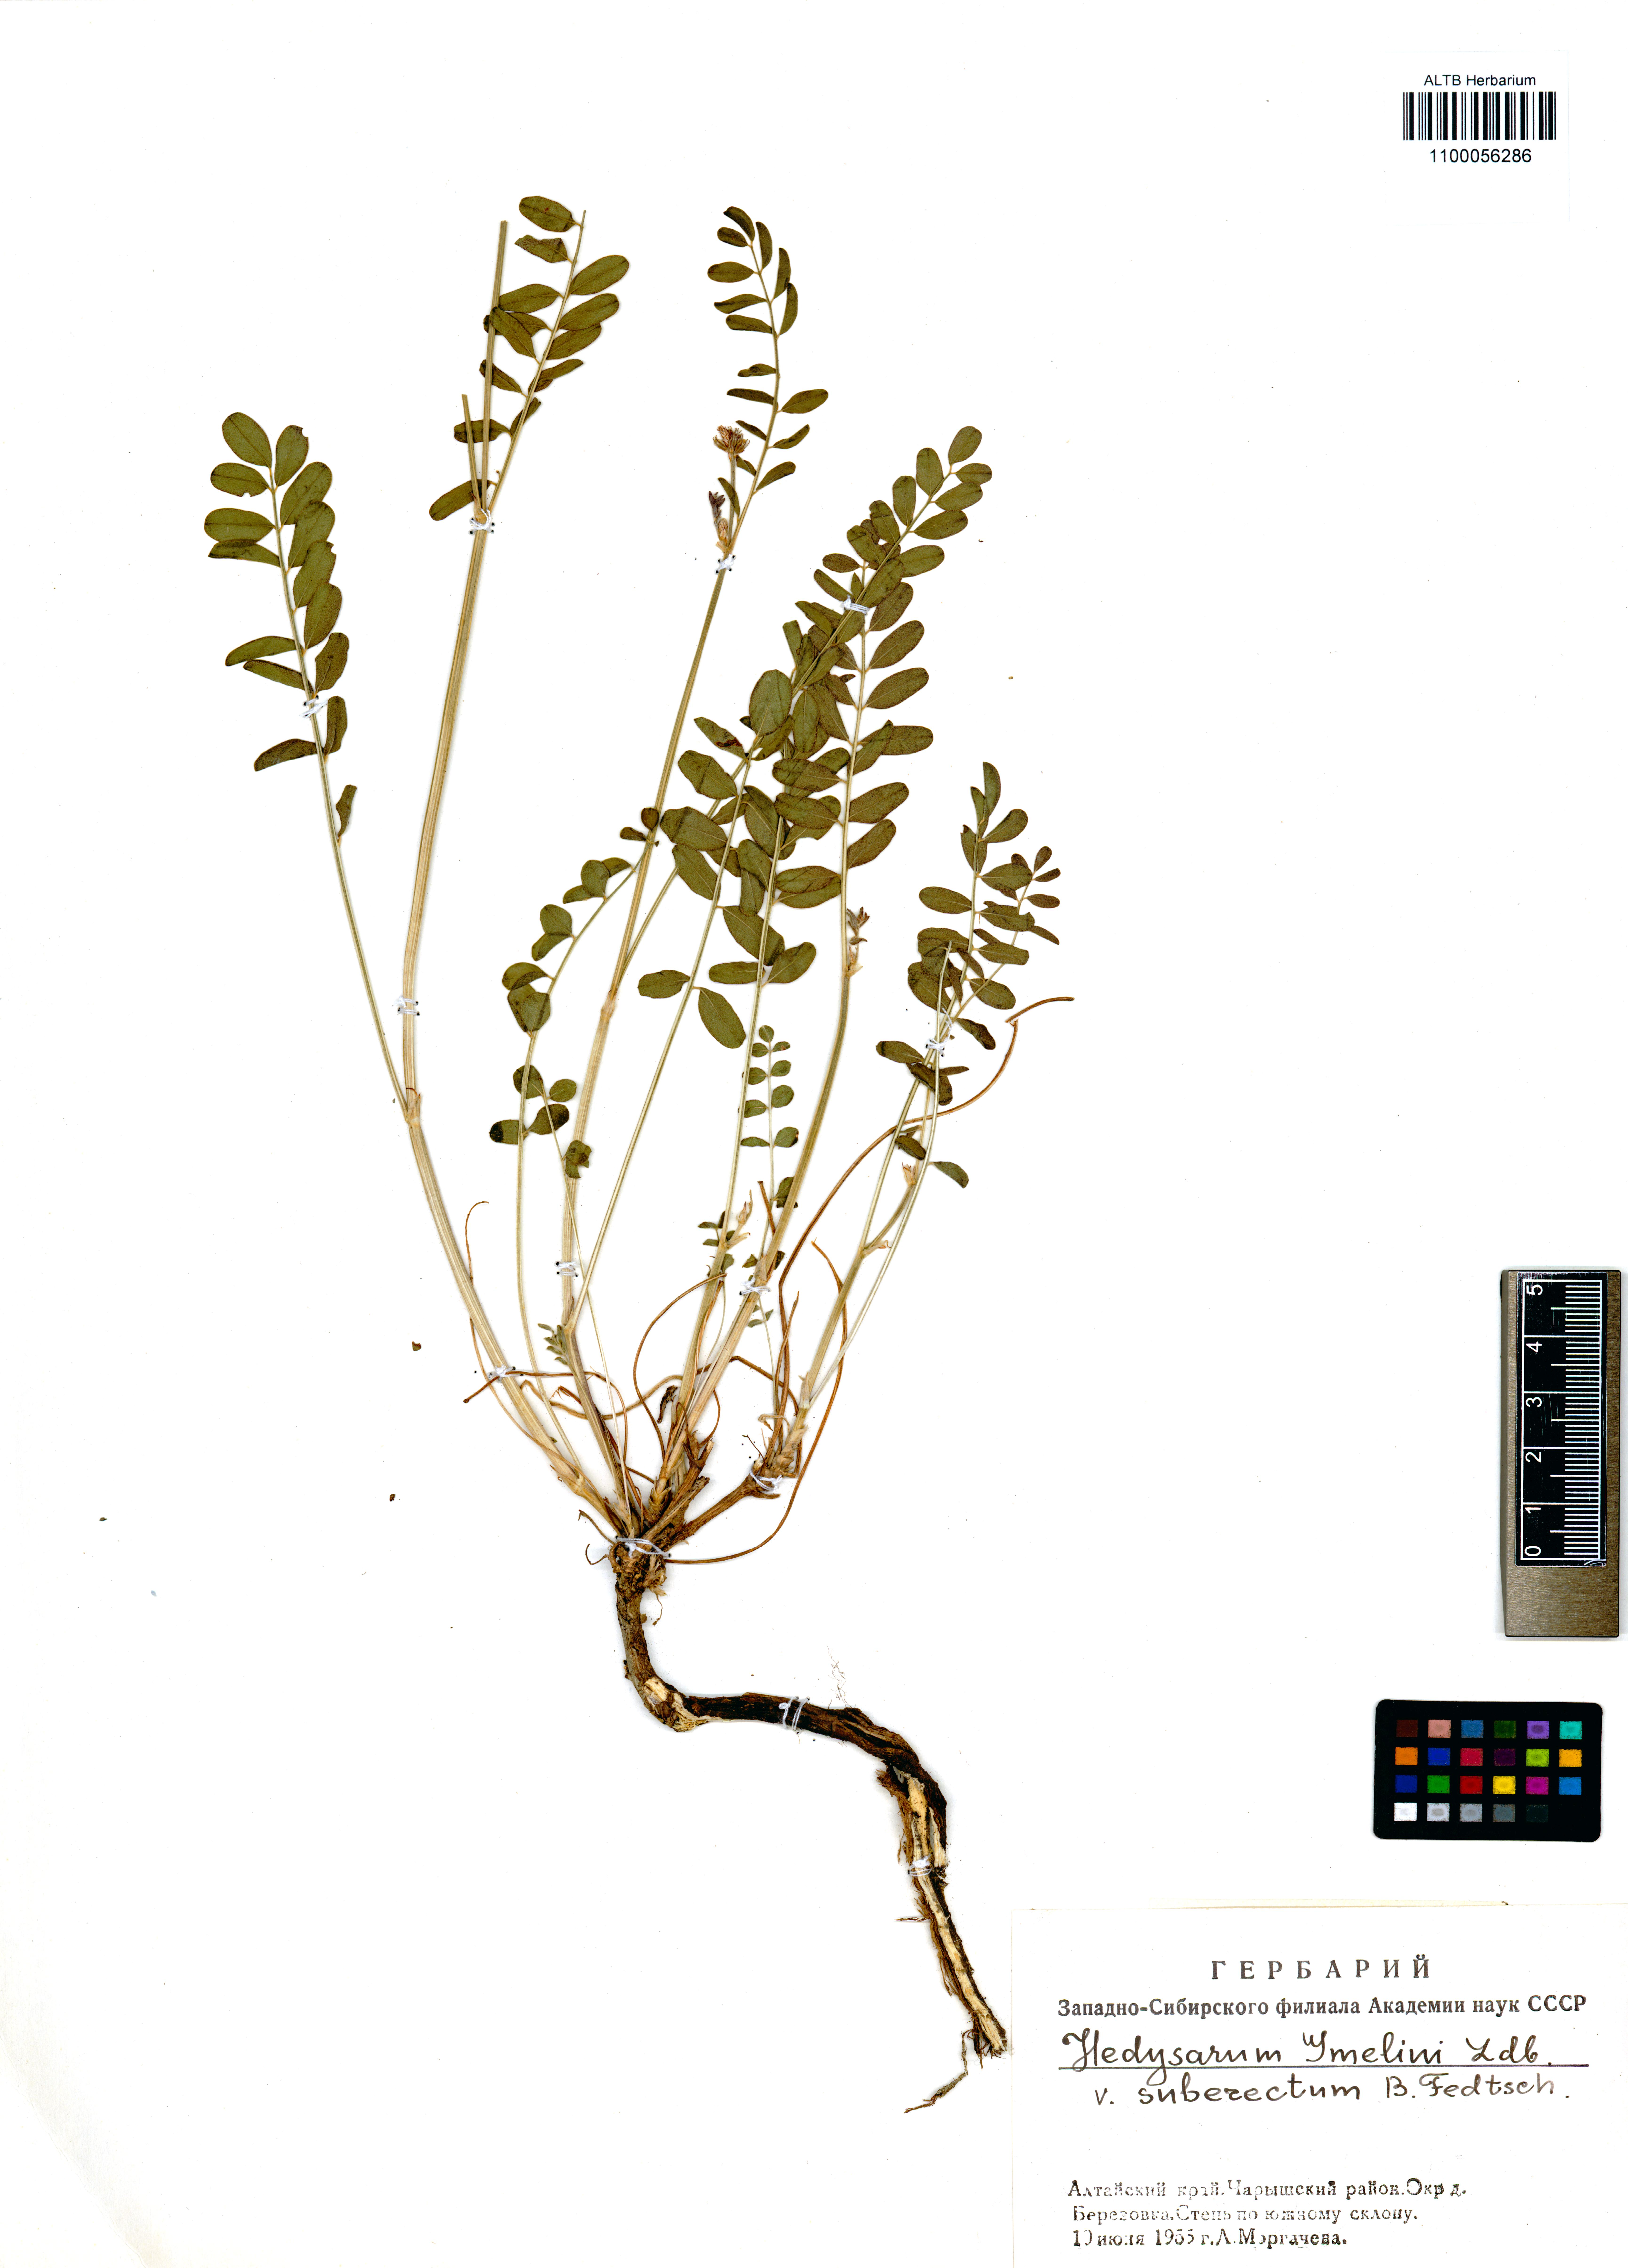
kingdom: Plantae
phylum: Tracheophyta
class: Magnoliopsida
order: Fabales
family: Fabaceae
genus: Hedysarum
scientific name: Hedysarum gmelinii
